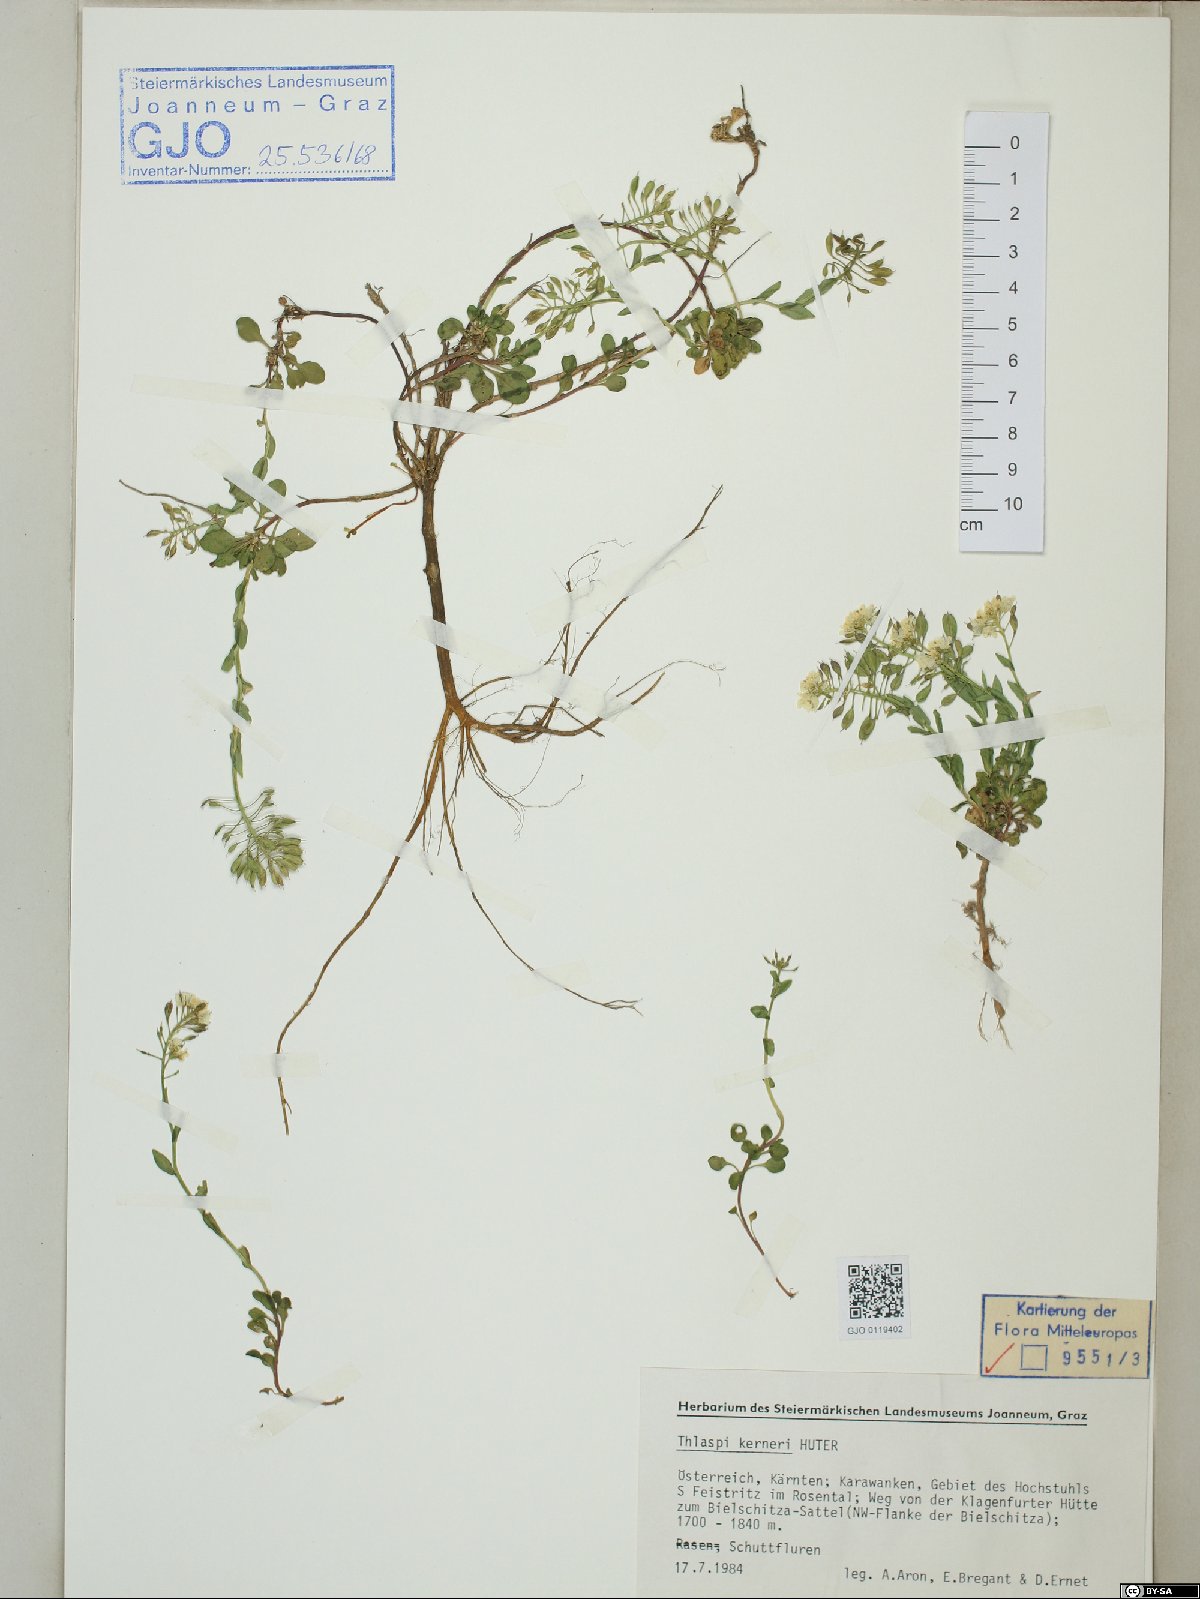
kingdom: Plantae
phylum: Tracheophyta
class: Magnoliopsida
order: Brassicales
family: Brassicaceae
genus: Noccaea
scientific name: Noccaea minima
